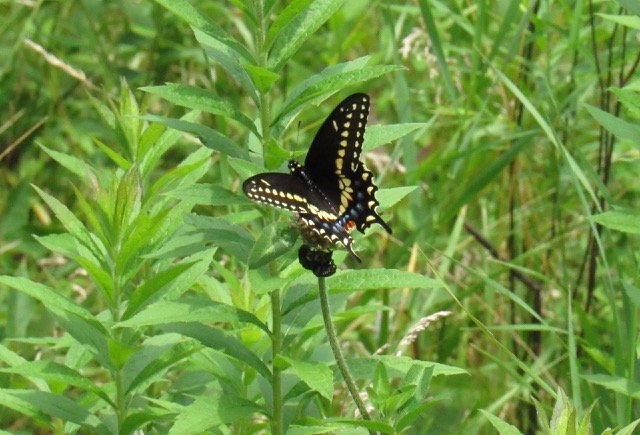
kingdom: Animalia
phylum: Arthropoda
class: Insecta
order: Lepidoptera
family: Papilionidae
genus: Papilio
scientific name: Papilio polyxenes
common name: Black Swallowtail
